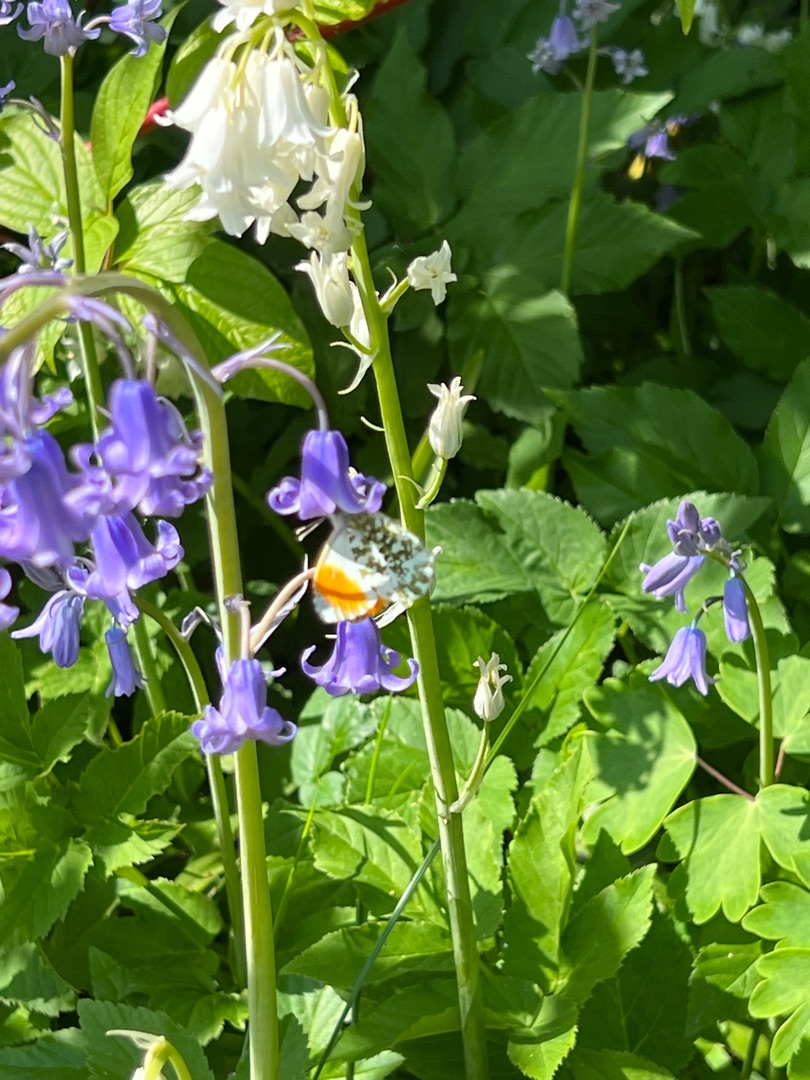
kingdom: Animalia
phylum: Arthropoda
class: Insecta
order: Lepidoptera
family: Pieridae
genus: Anthocharis
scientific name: Anthocharis cardamines
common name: Aurora
